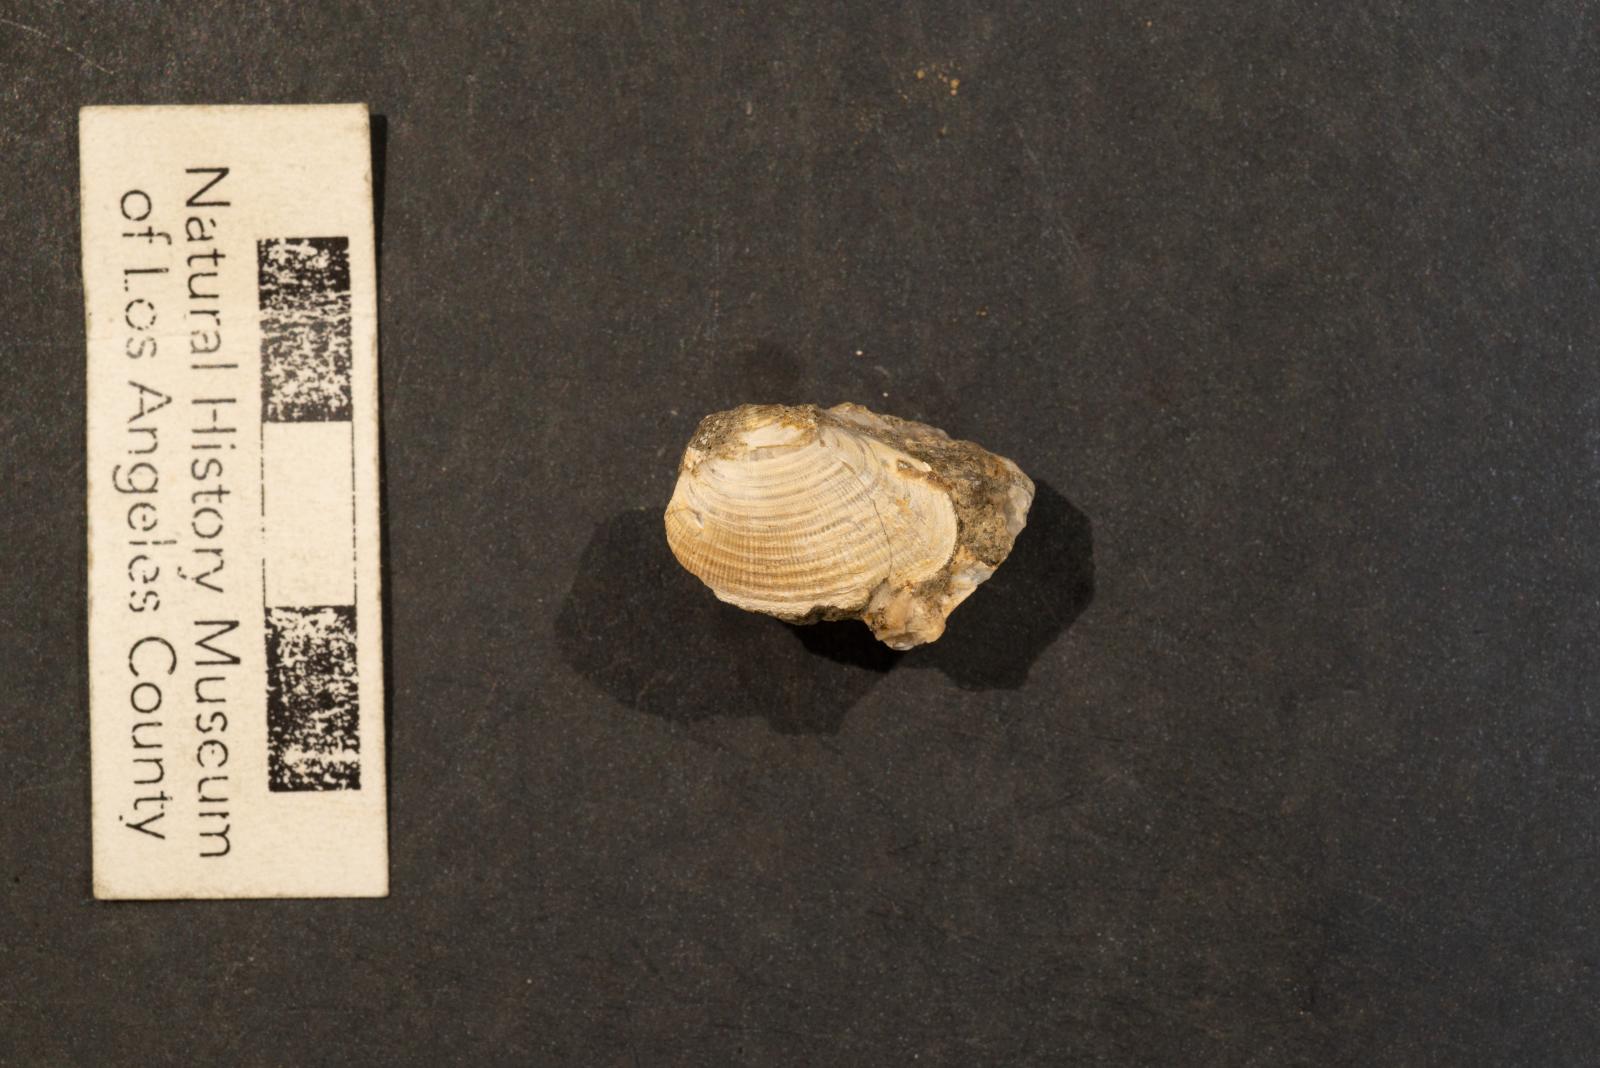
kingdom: Animalia
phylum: Mollusca
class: Bivalvia
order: Carditida
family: Crassatellidae
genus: Crassatella
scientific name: Crassatella elongata
